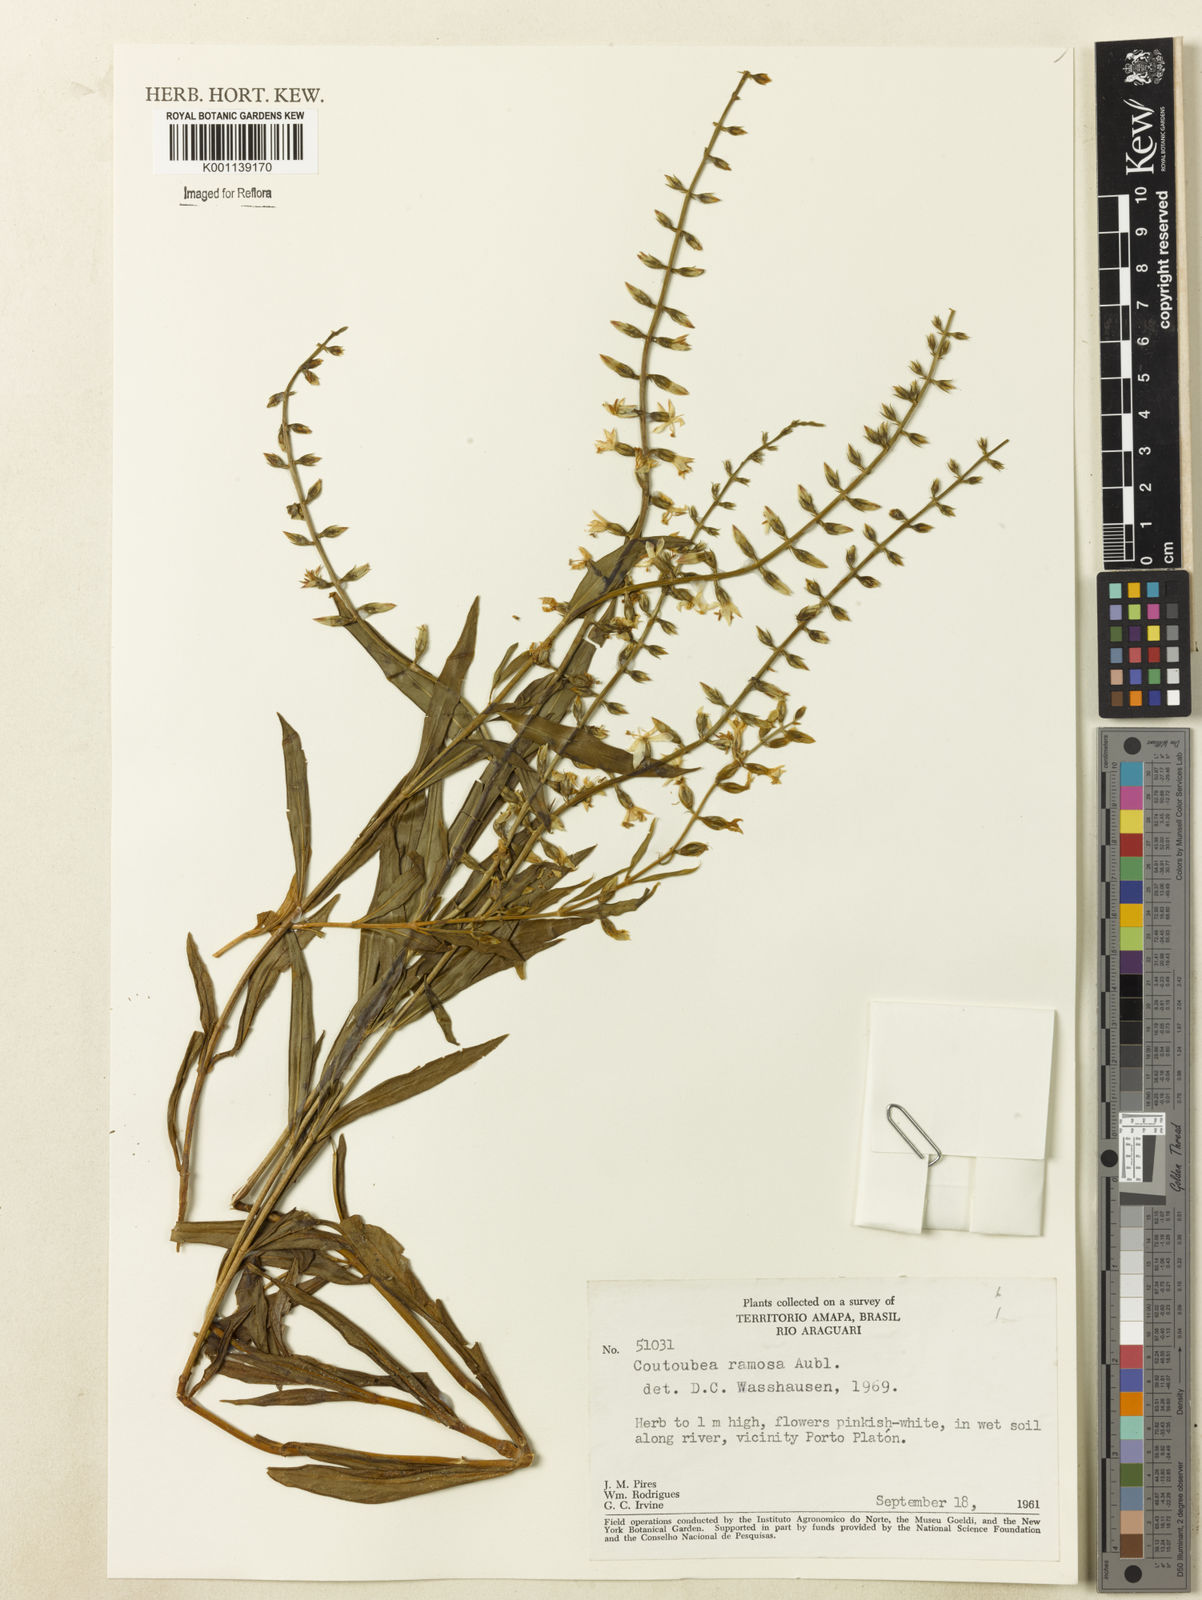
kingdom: Plantae
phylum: Tracheophyta
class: Magnoliopsida
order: Gentianales
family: Gentianaceae
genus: Coutoubea
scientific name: Coutoubea ramosa
